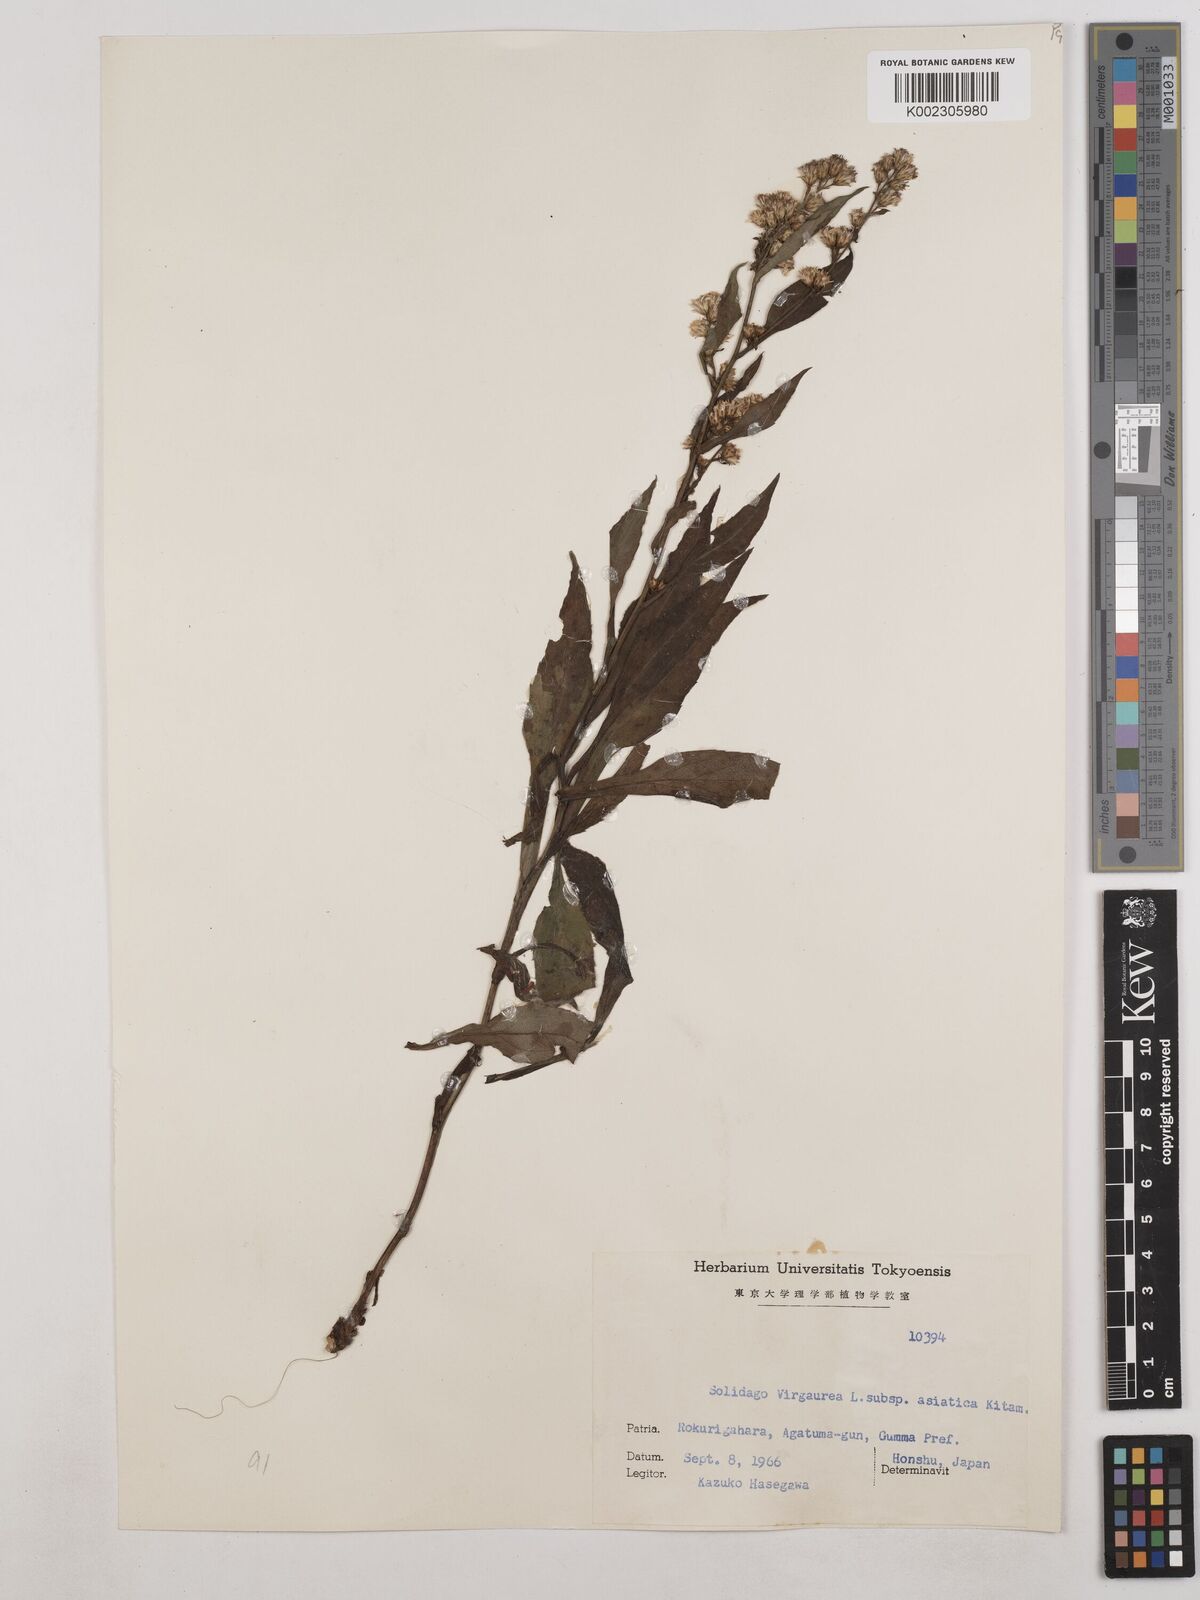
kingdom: Plantae
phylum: Tracheophyta
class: Magnoliopsida
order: Asterales
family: Asteraceae
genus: Solidago
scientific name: Solidago virgaurea
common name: Goldenrod
